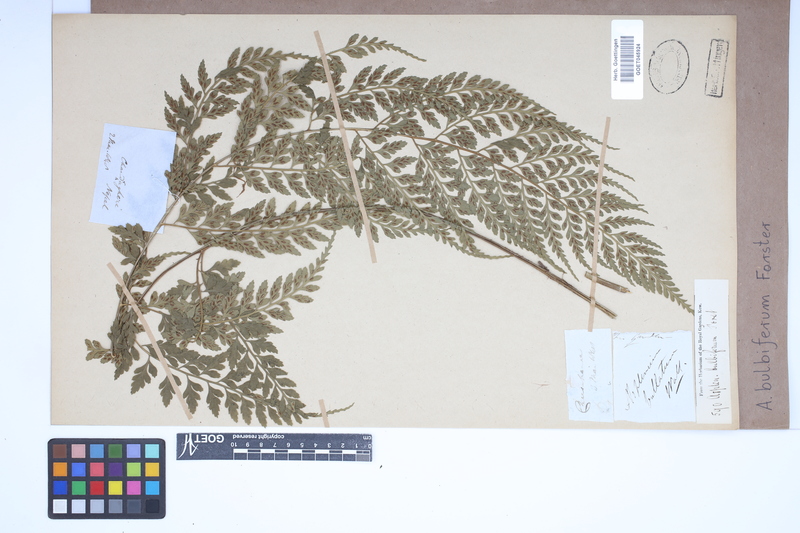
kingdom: Plantae
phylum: Tracheophyta
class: Polypodiopsida
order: Polypodiales
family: Aspleniaceae
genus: Asplenium
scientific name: Asplenium bulbiferum
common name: Mother fern
